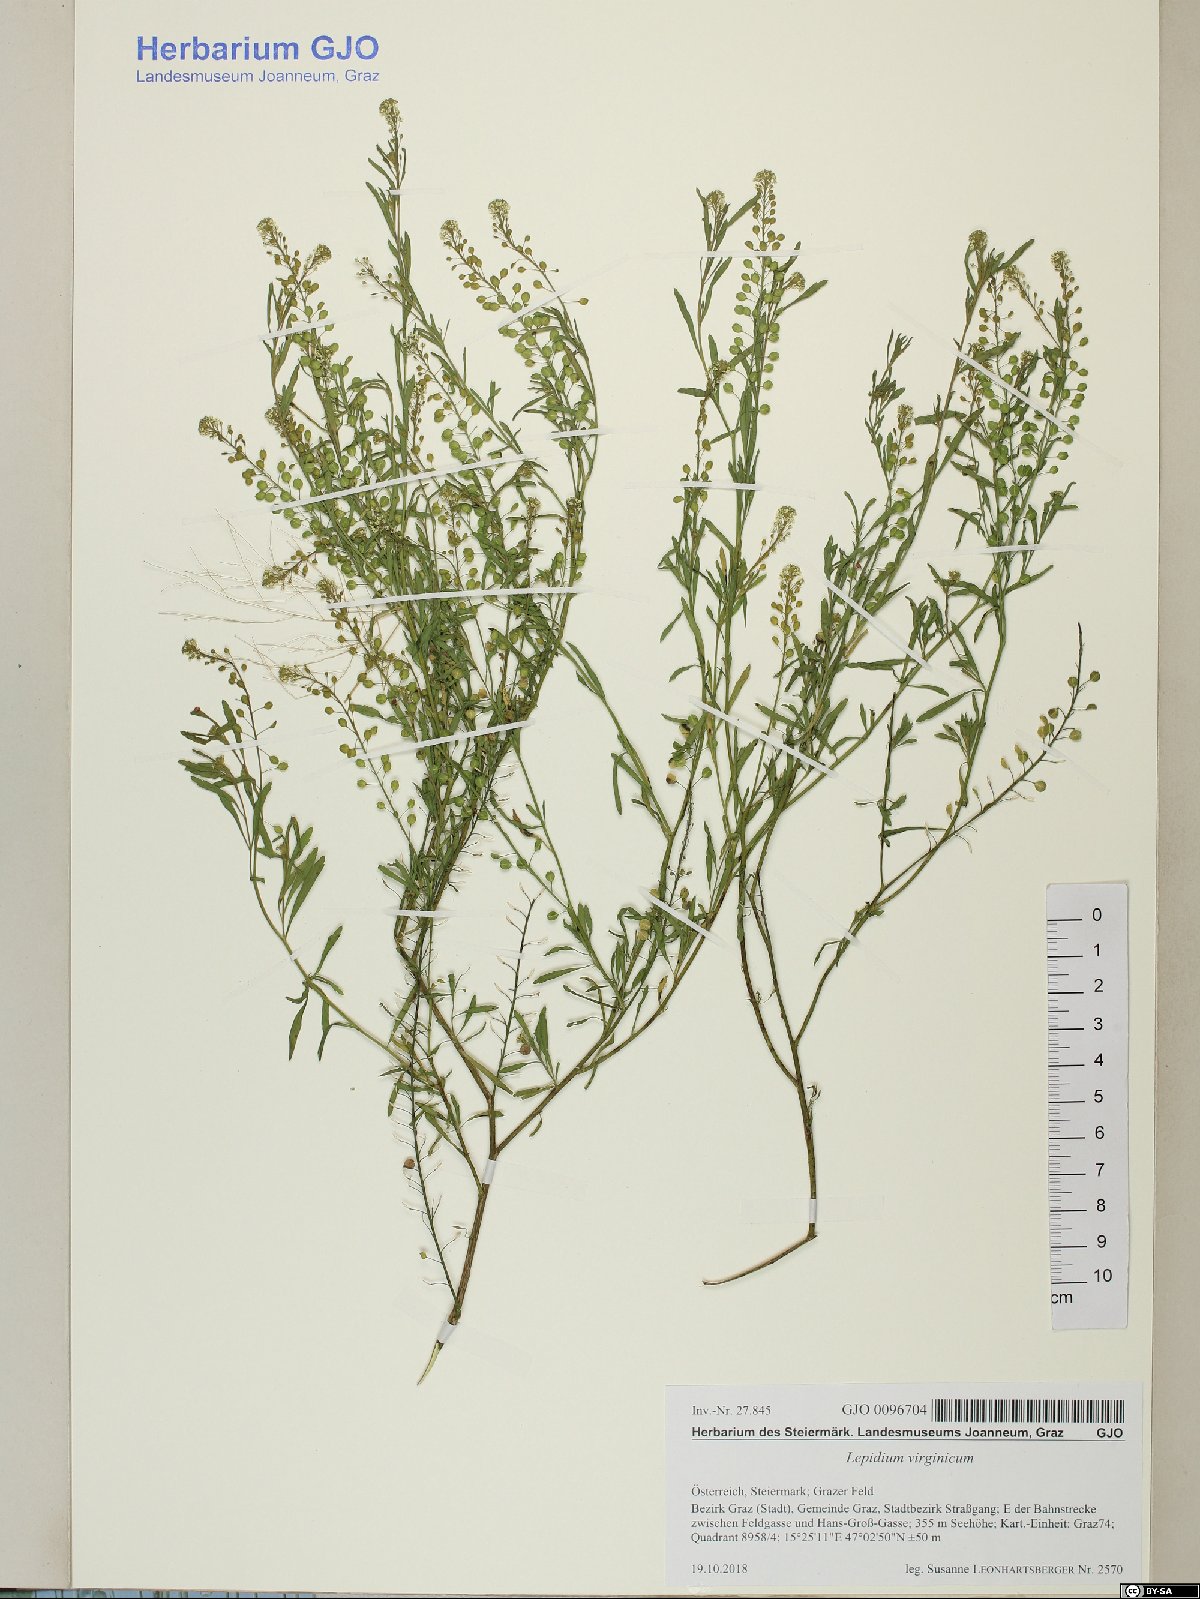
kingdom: Plantae
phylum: Tracheophyta
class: Magnoliopsida
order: Brassicales
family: Brassicaceae
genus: Lepidium
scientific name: Lepidium virginicum
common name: Least pepperwort
